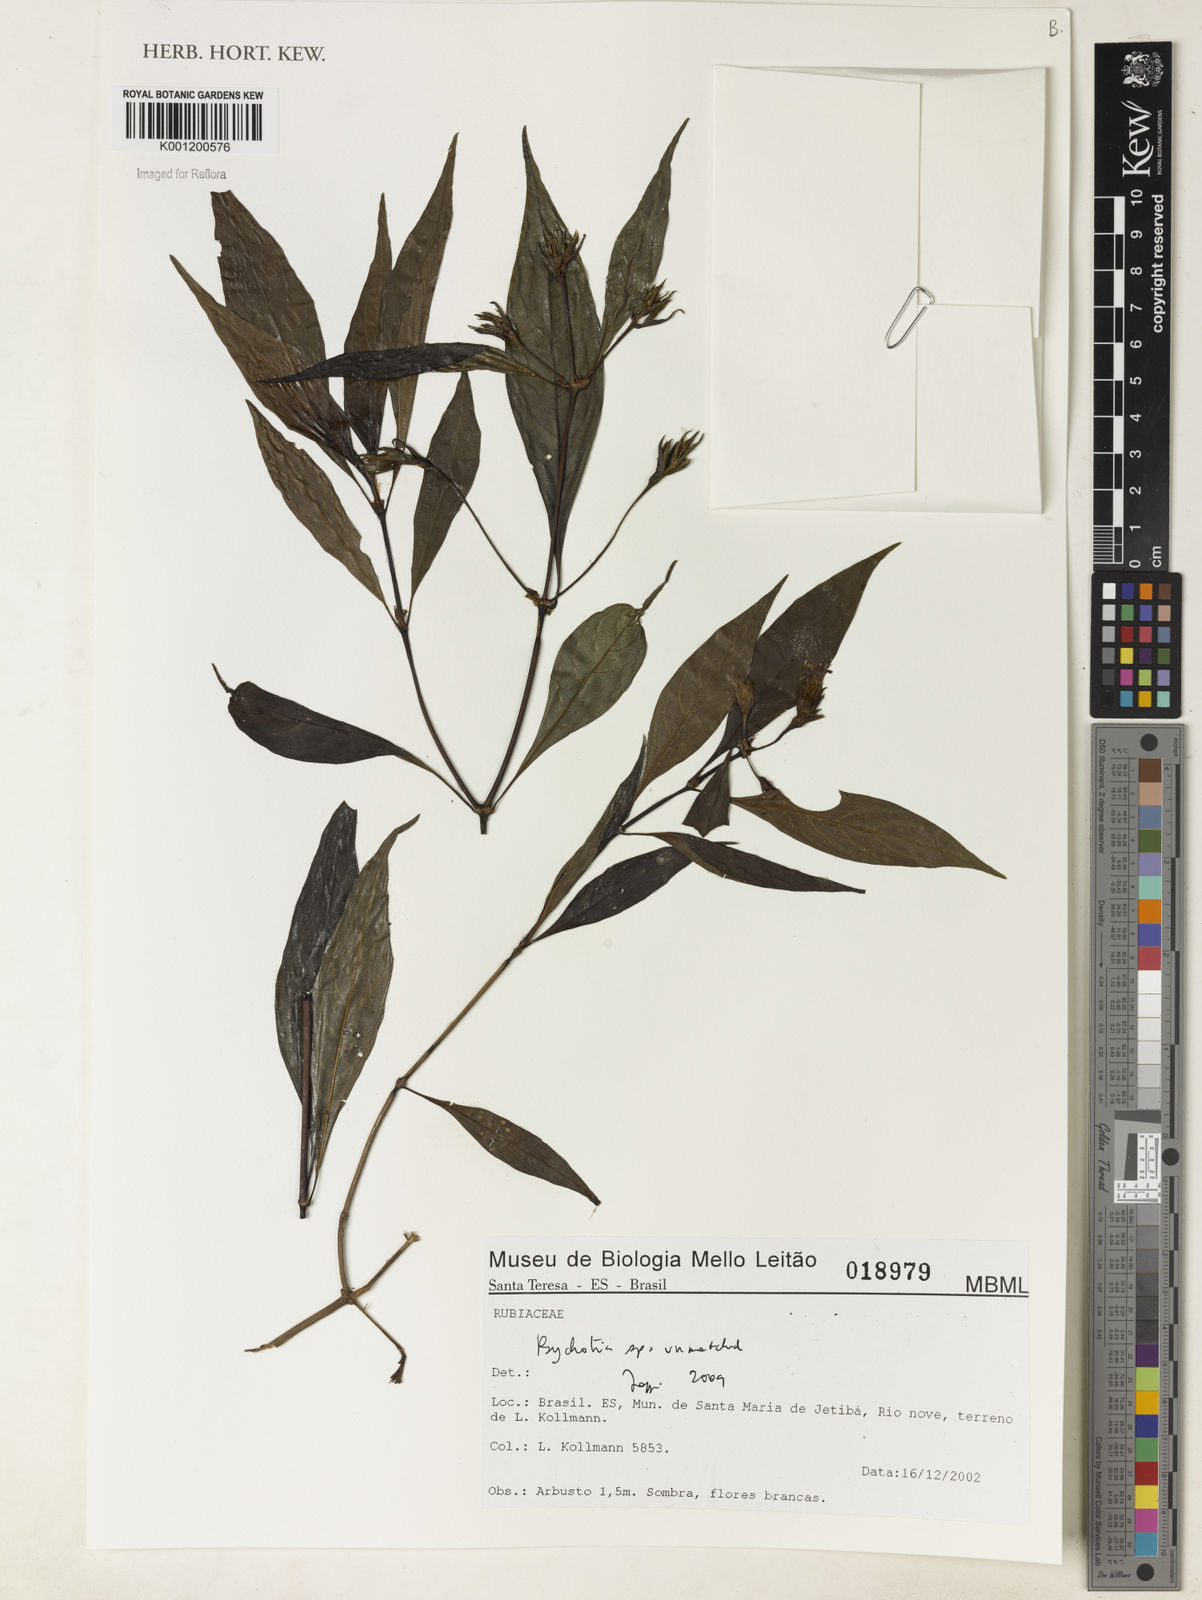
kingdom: Plantae
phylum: Tracheophyta
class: Magnoliopsida
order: Gentianales
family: Rubiaceae
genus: Psychotria
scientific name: Psychotria
